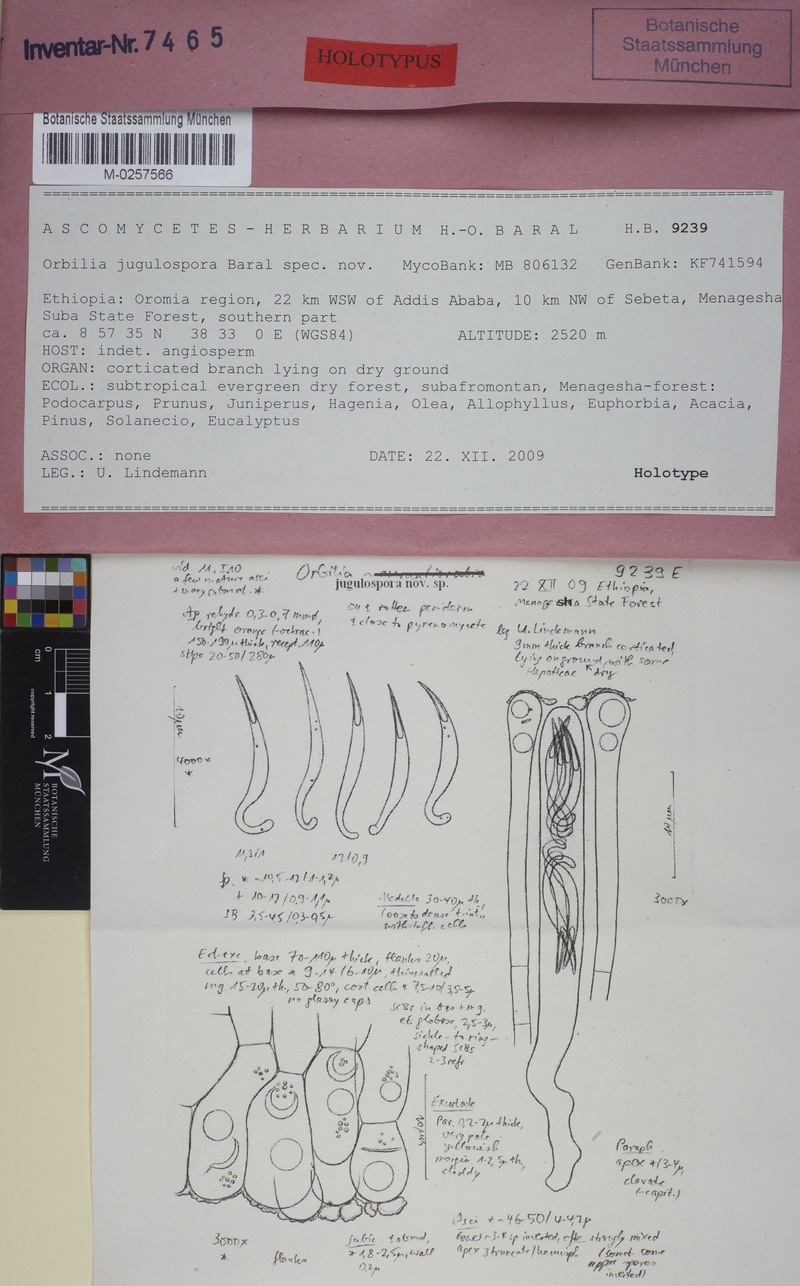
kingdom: Fungi
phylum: Ascomycota
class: Orbiliomycetes
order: Orbiliales
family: Orbiliaceae
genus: Orbilia
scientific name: Orbilia jugulospora
